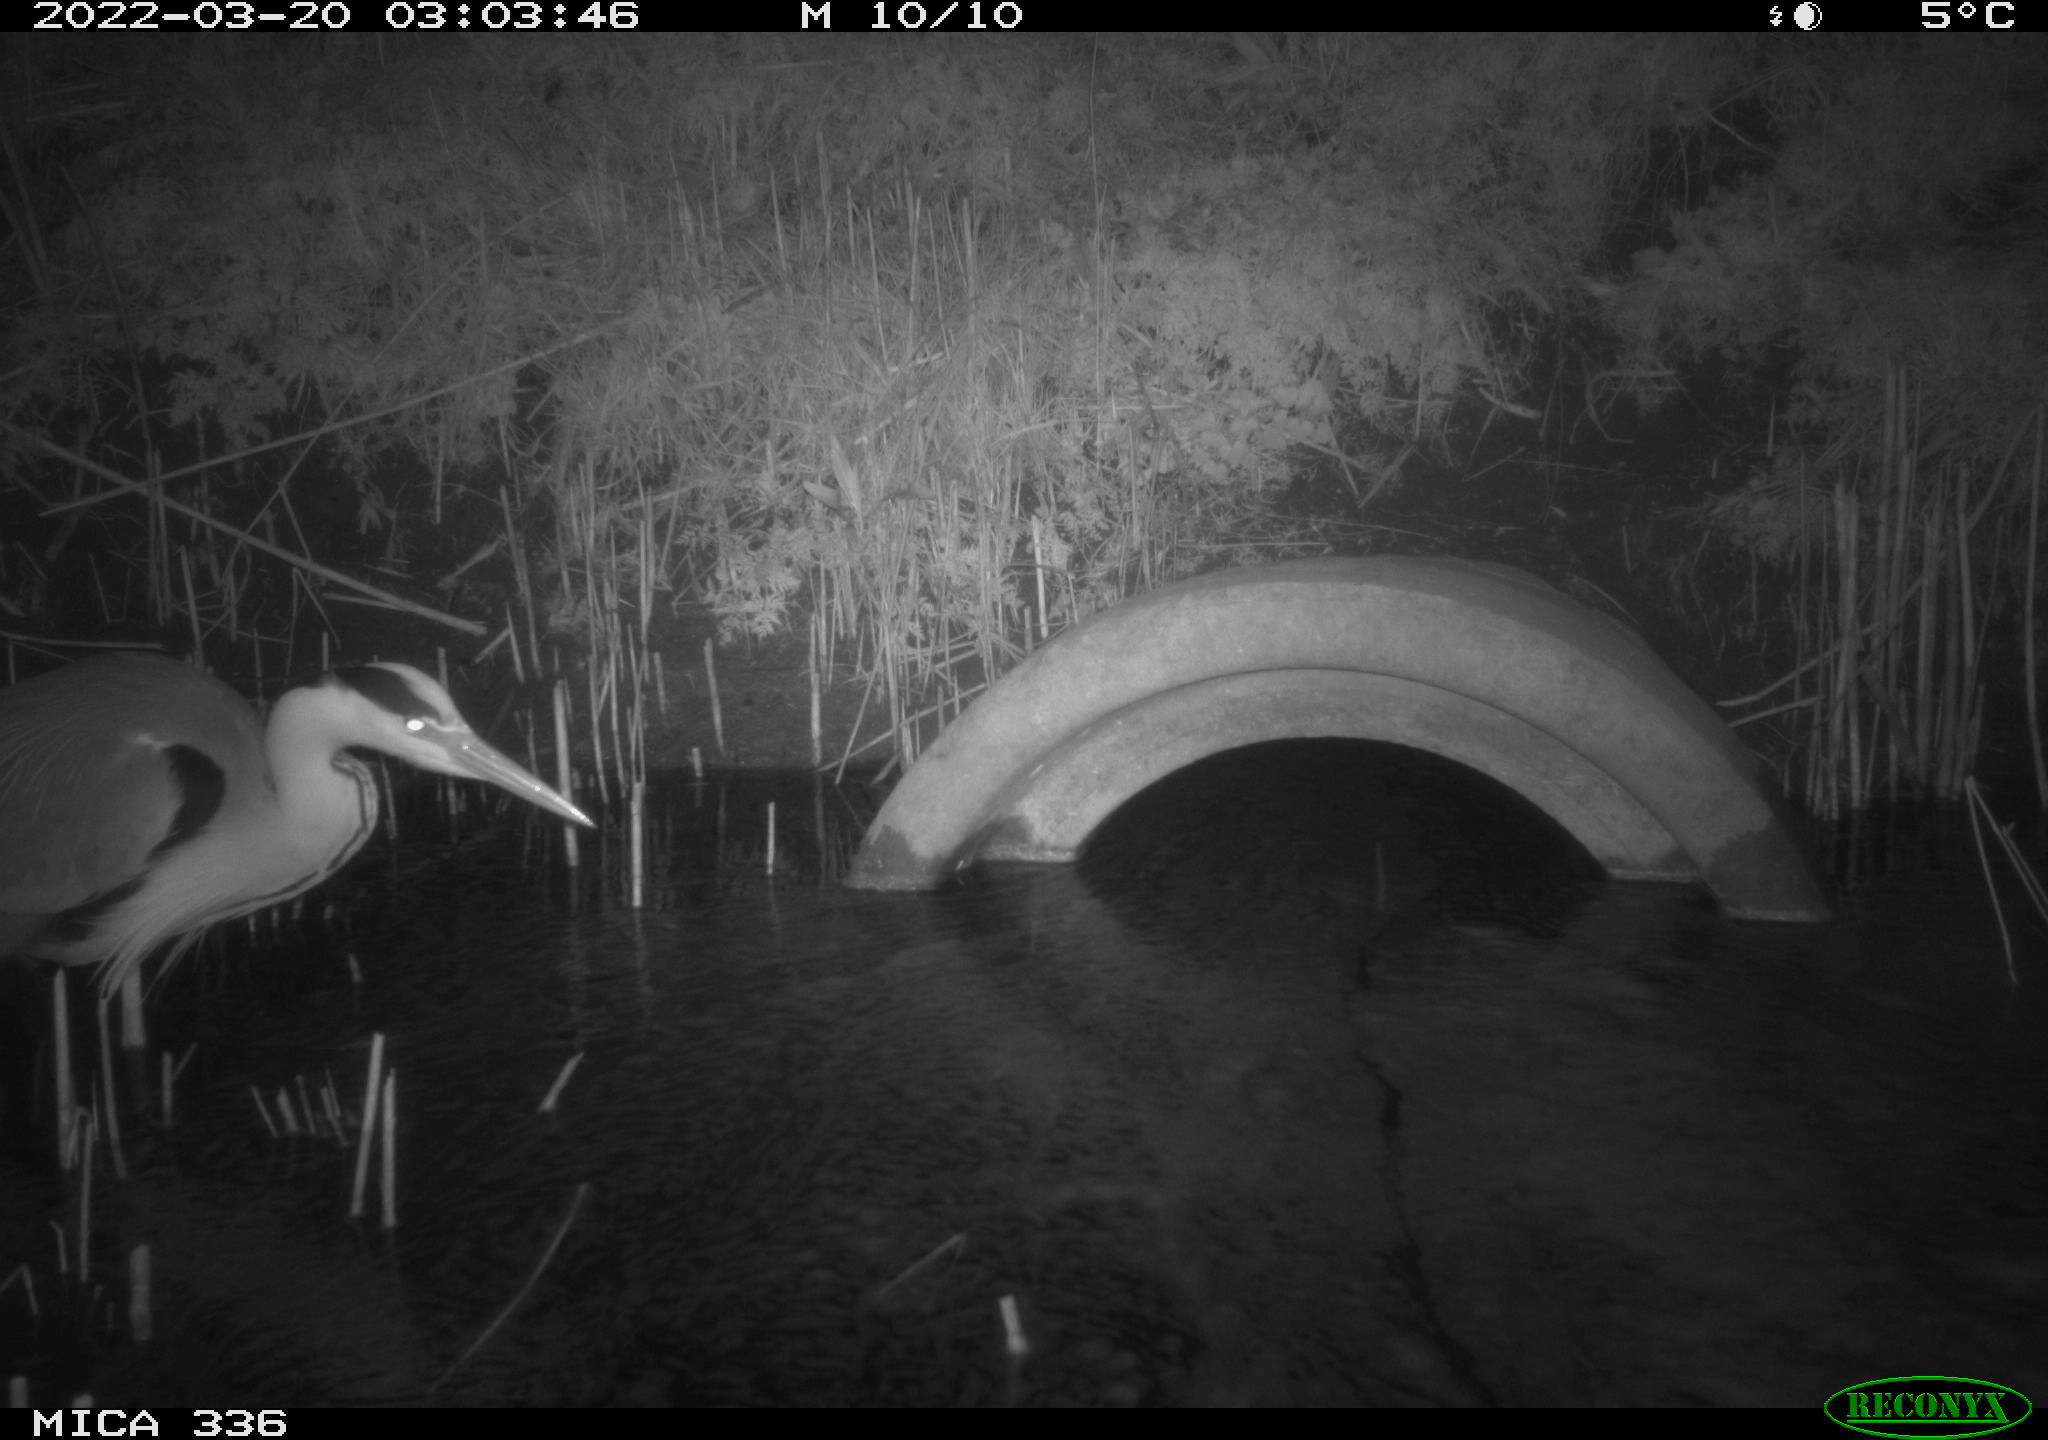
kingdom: Animalia
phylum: Chordata
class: Aves
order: Pelecaniformes
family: Ardeidae
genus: Ardea
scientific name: Ardea cinerea
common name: Grey heron
